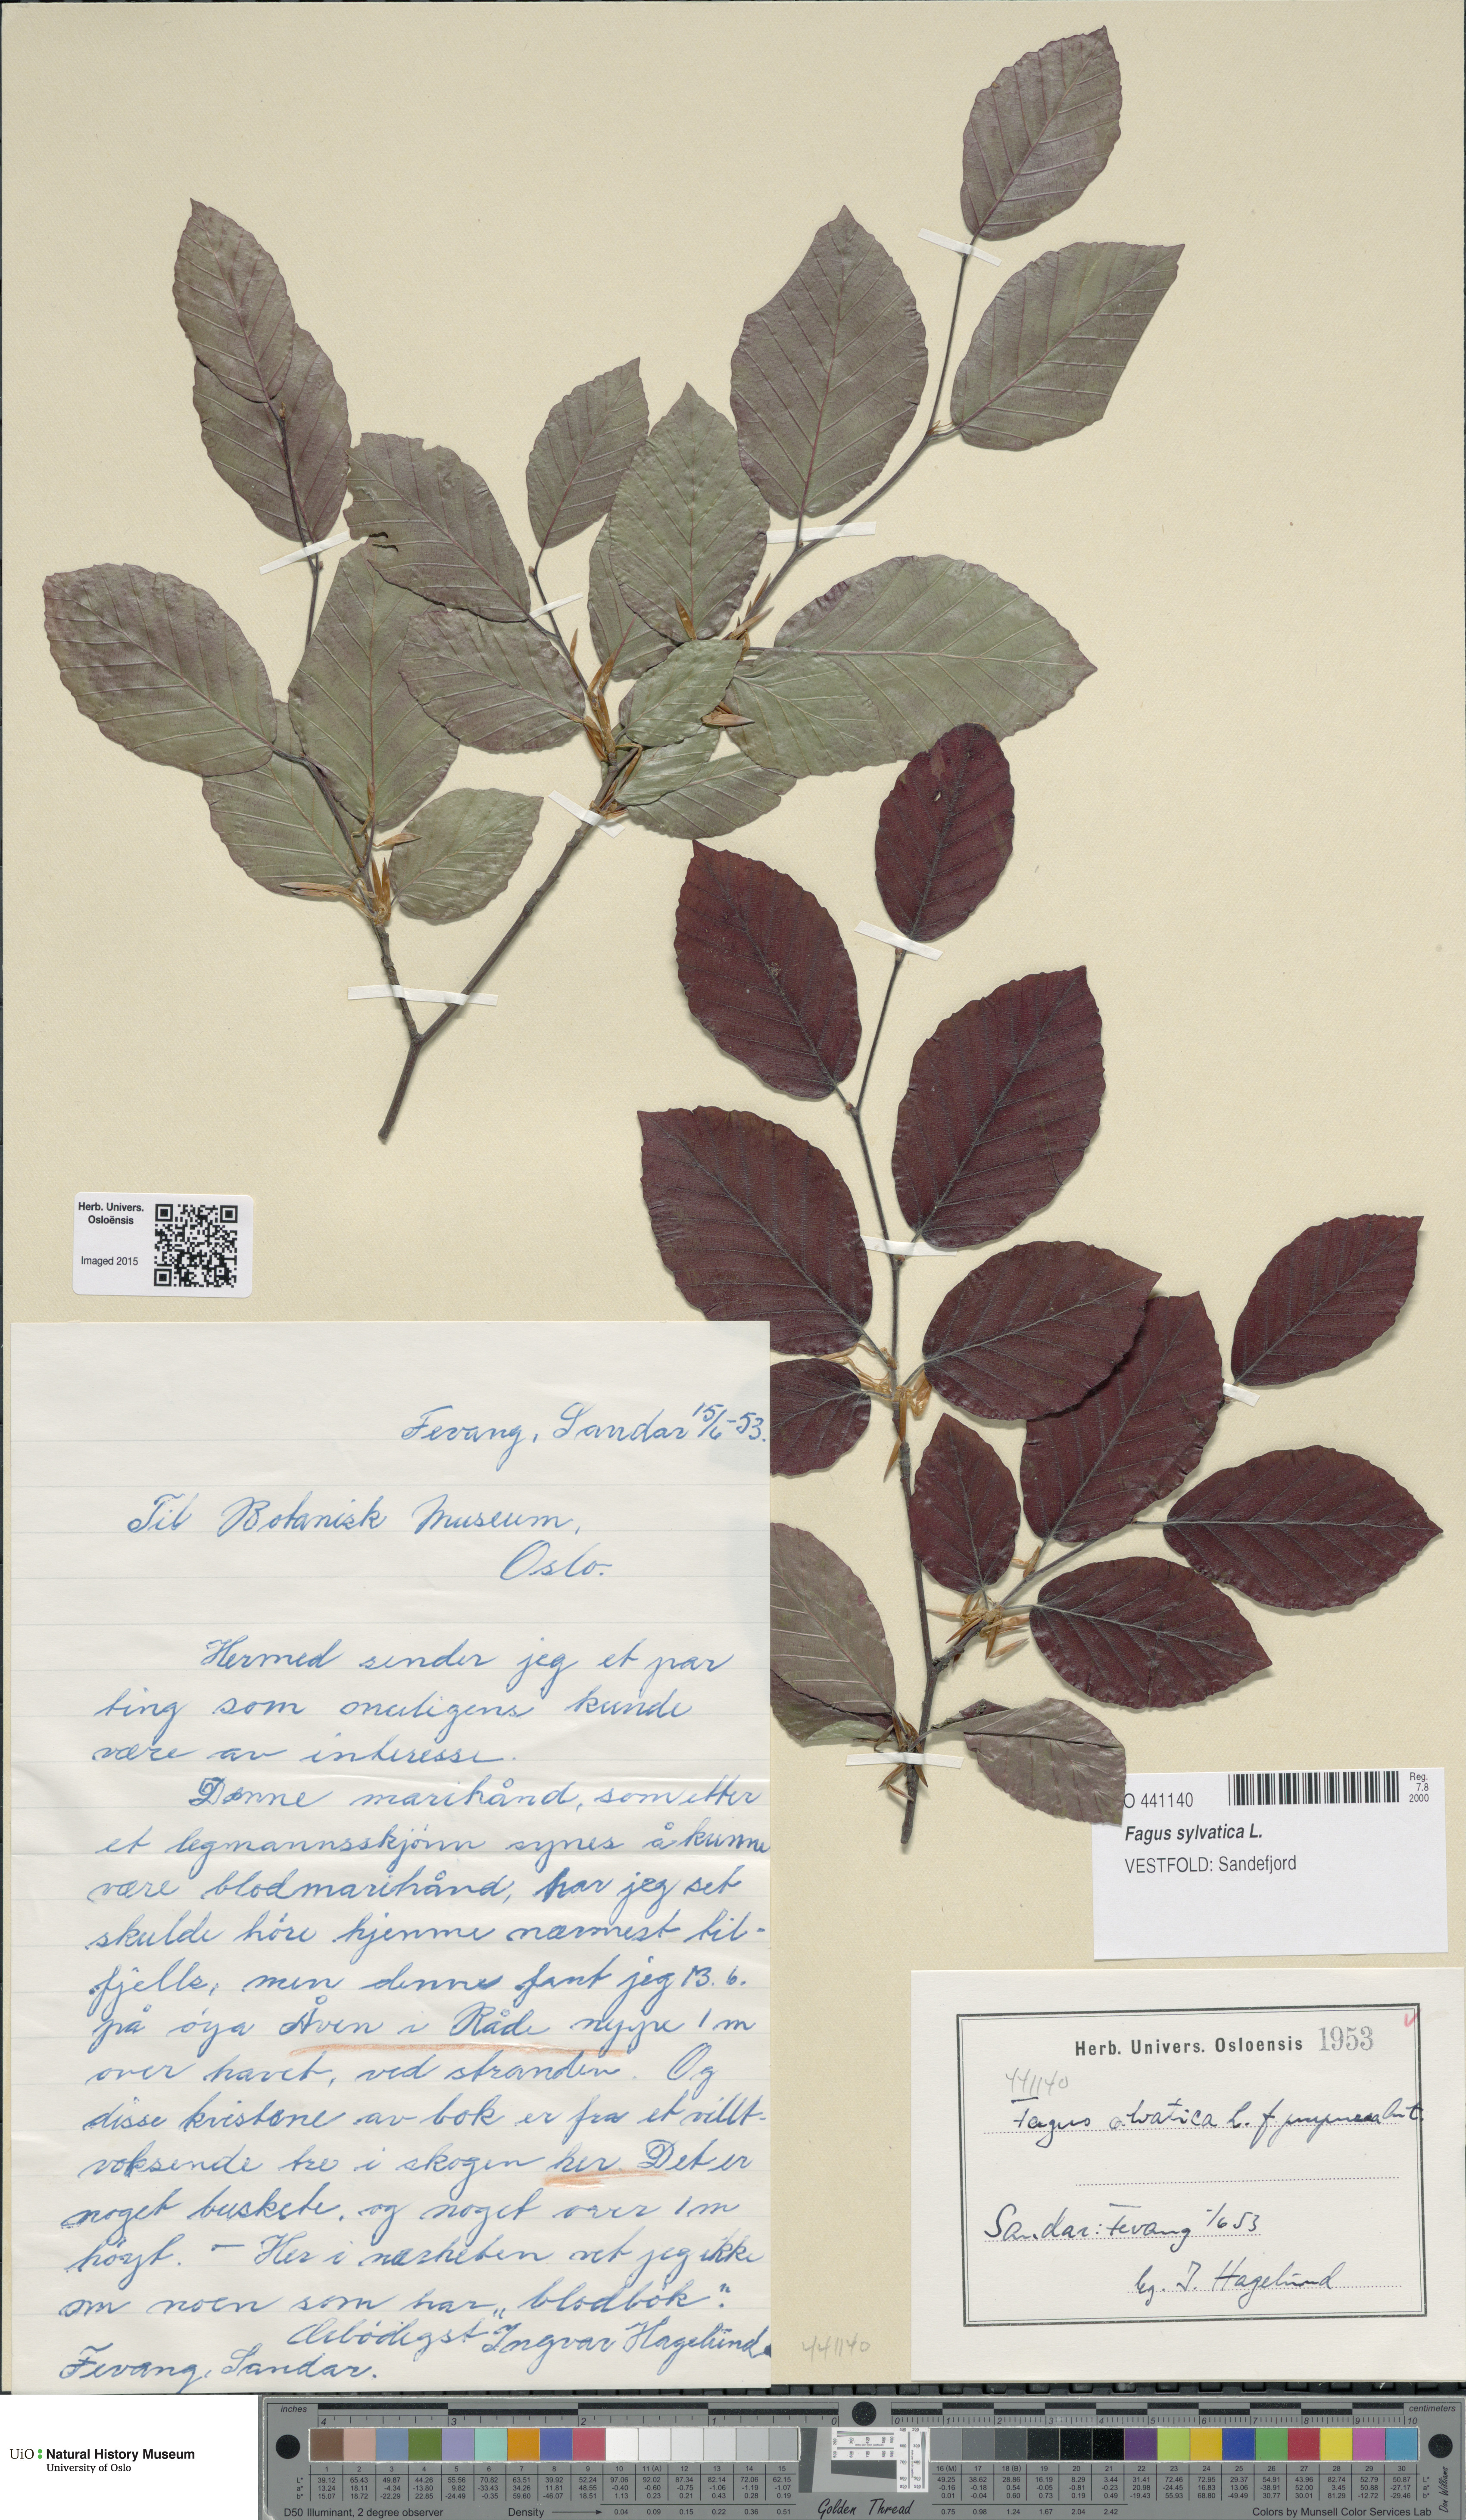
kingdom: Plantae
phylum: Tracheophyta
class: Magnoliopsida
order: Fagales
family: Fagaceae
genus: Fagus
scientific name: Fagus sylvatica
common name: Beech
